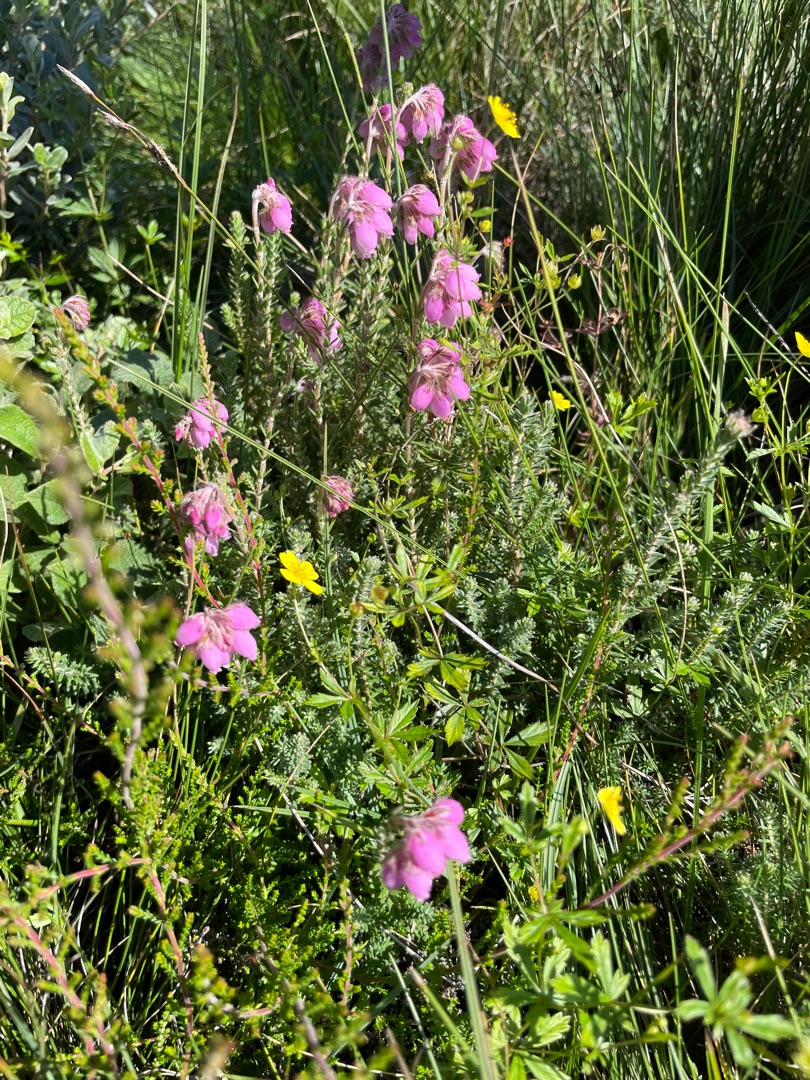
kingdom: Plantae
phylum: Tracheophyta
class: Magnoliopsida
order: Ericales
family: Ericaceae
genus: Erica
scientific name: Erica tetralix
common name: Klokkelyng
